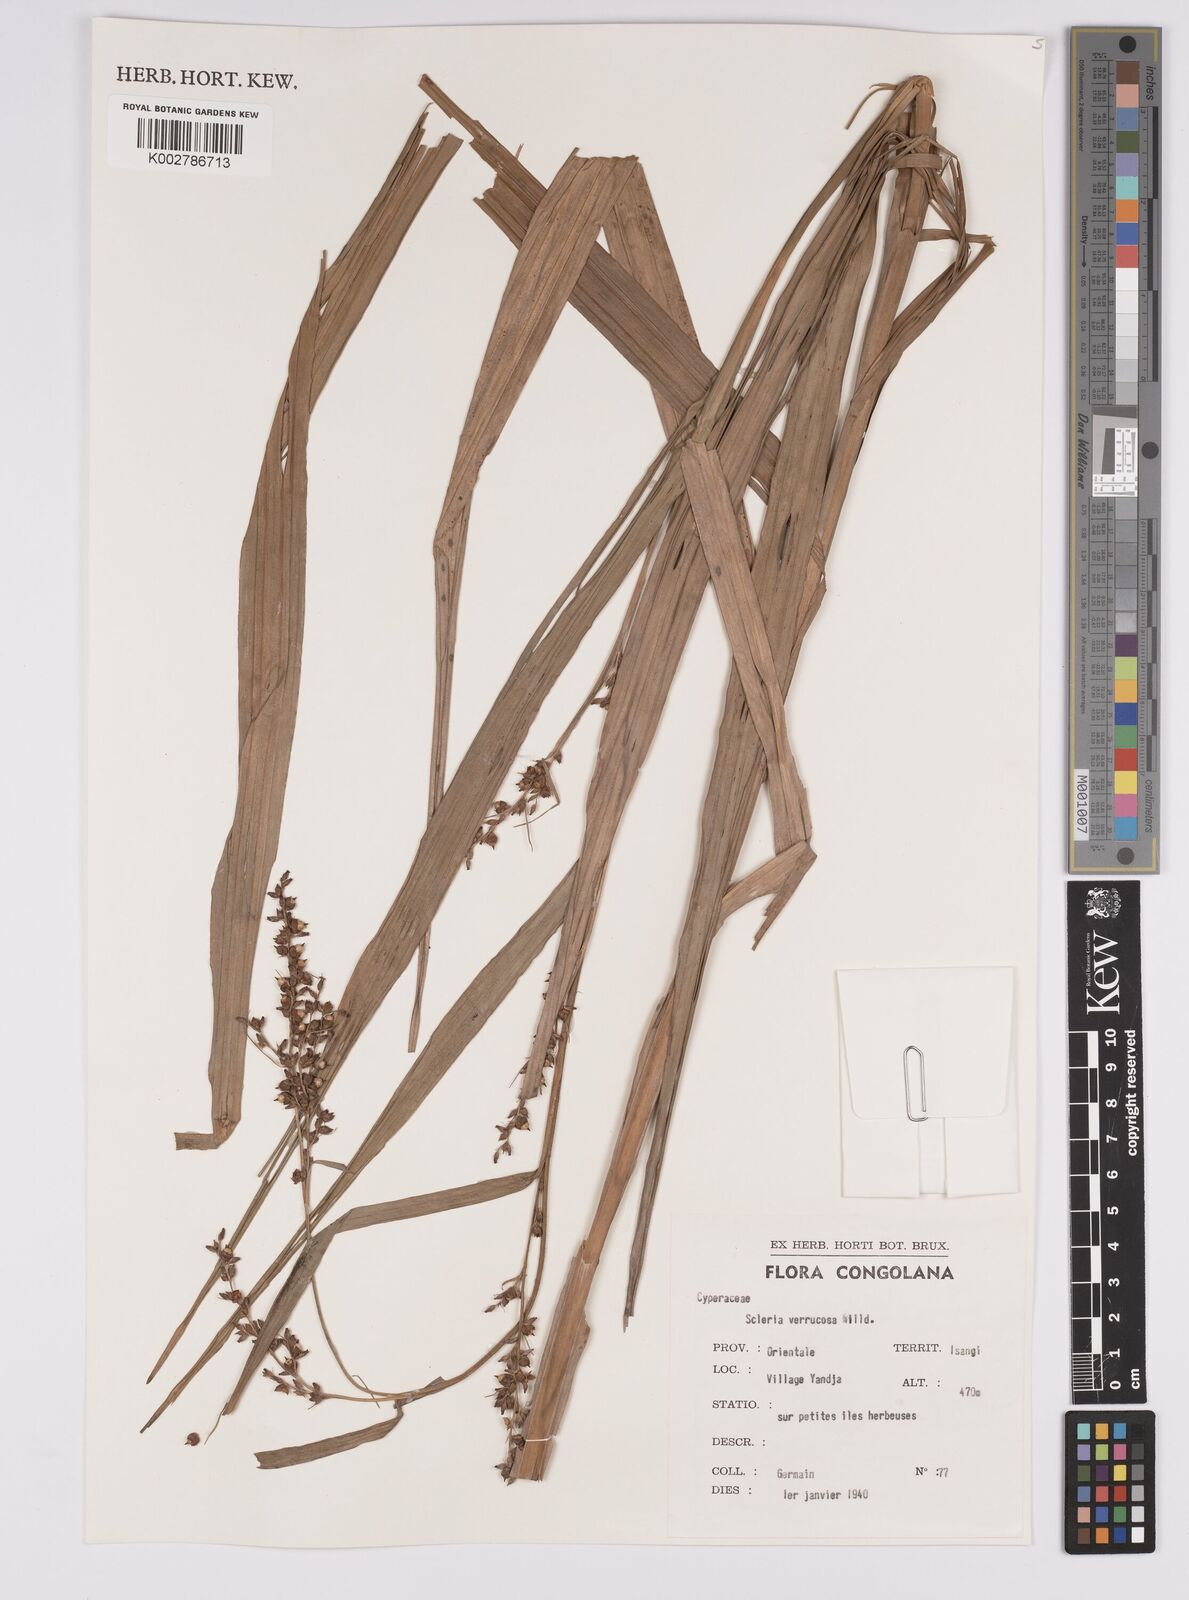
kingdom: Plantae
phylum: Tracheophyta
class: Liliopsida
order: Poales
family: Cyperaceae
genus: Scleria
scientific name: Scleria verrucosa
